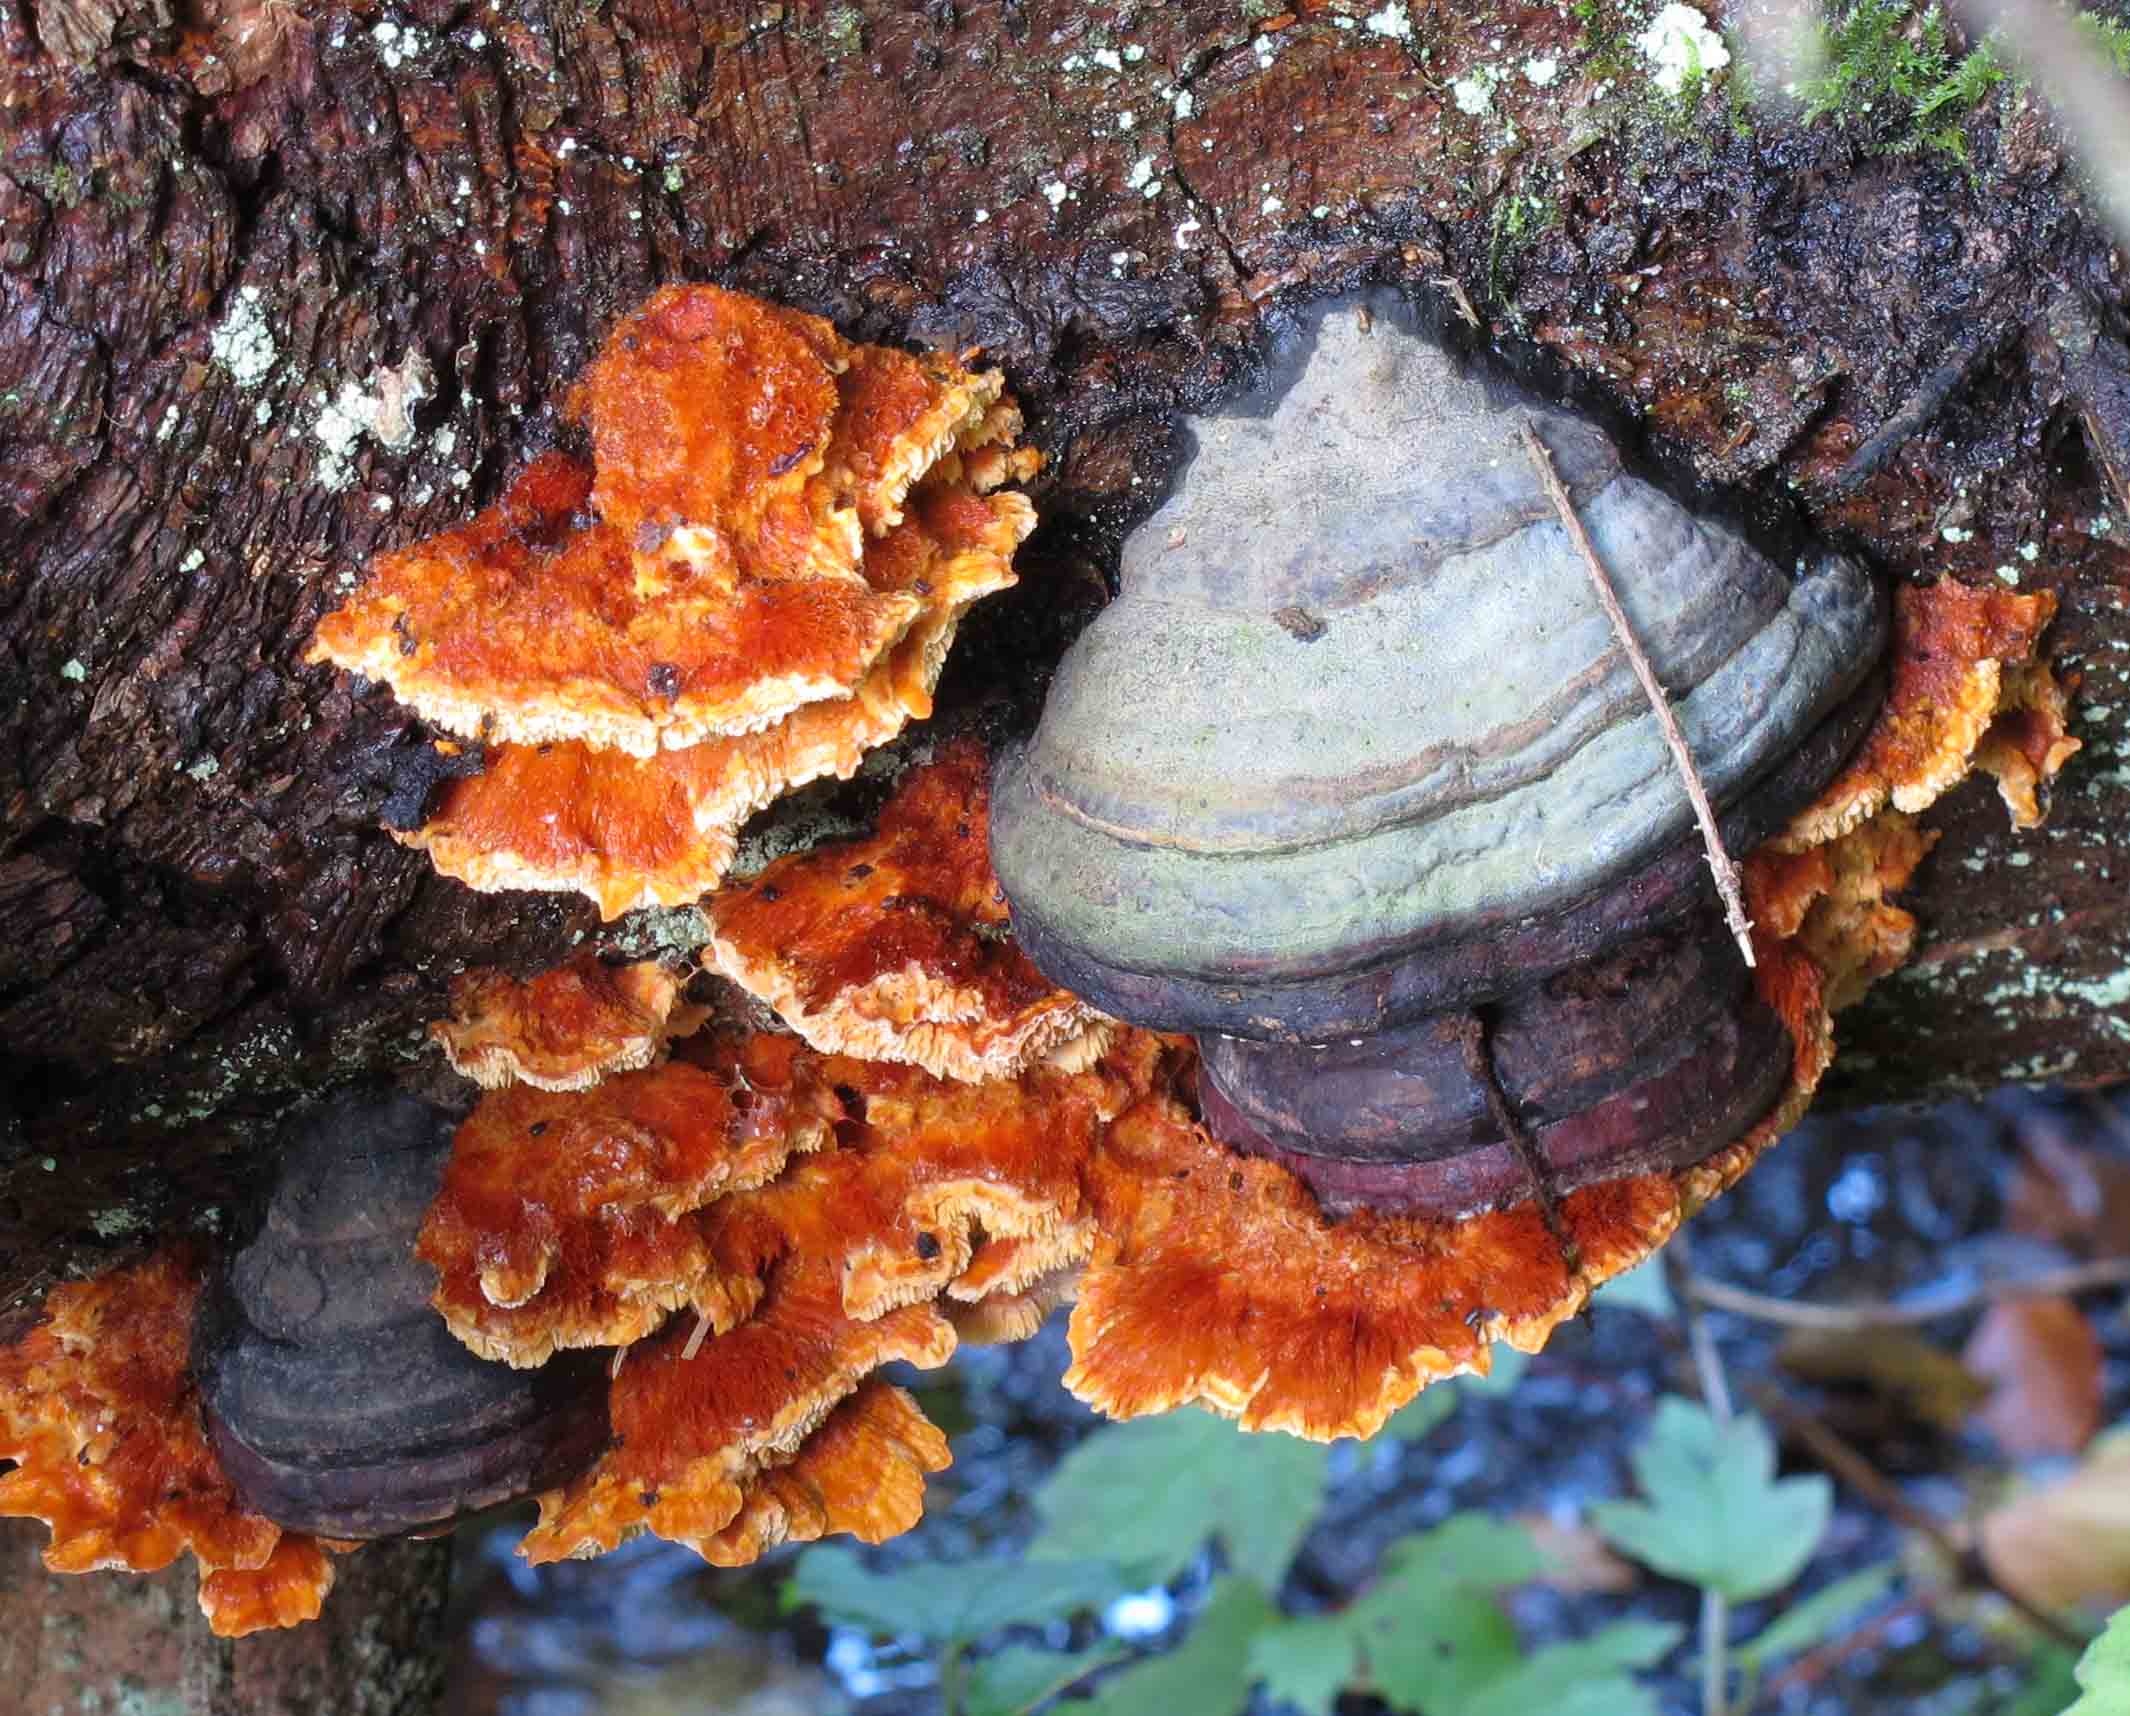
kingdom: Fungi
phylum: Basidiomycota
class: Agaricomycetes
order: Polyporales
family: Pycnoporellaceae
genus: Pycnoporellus
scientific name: Pycnoporellus fulgens
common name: flammeporesvamp
